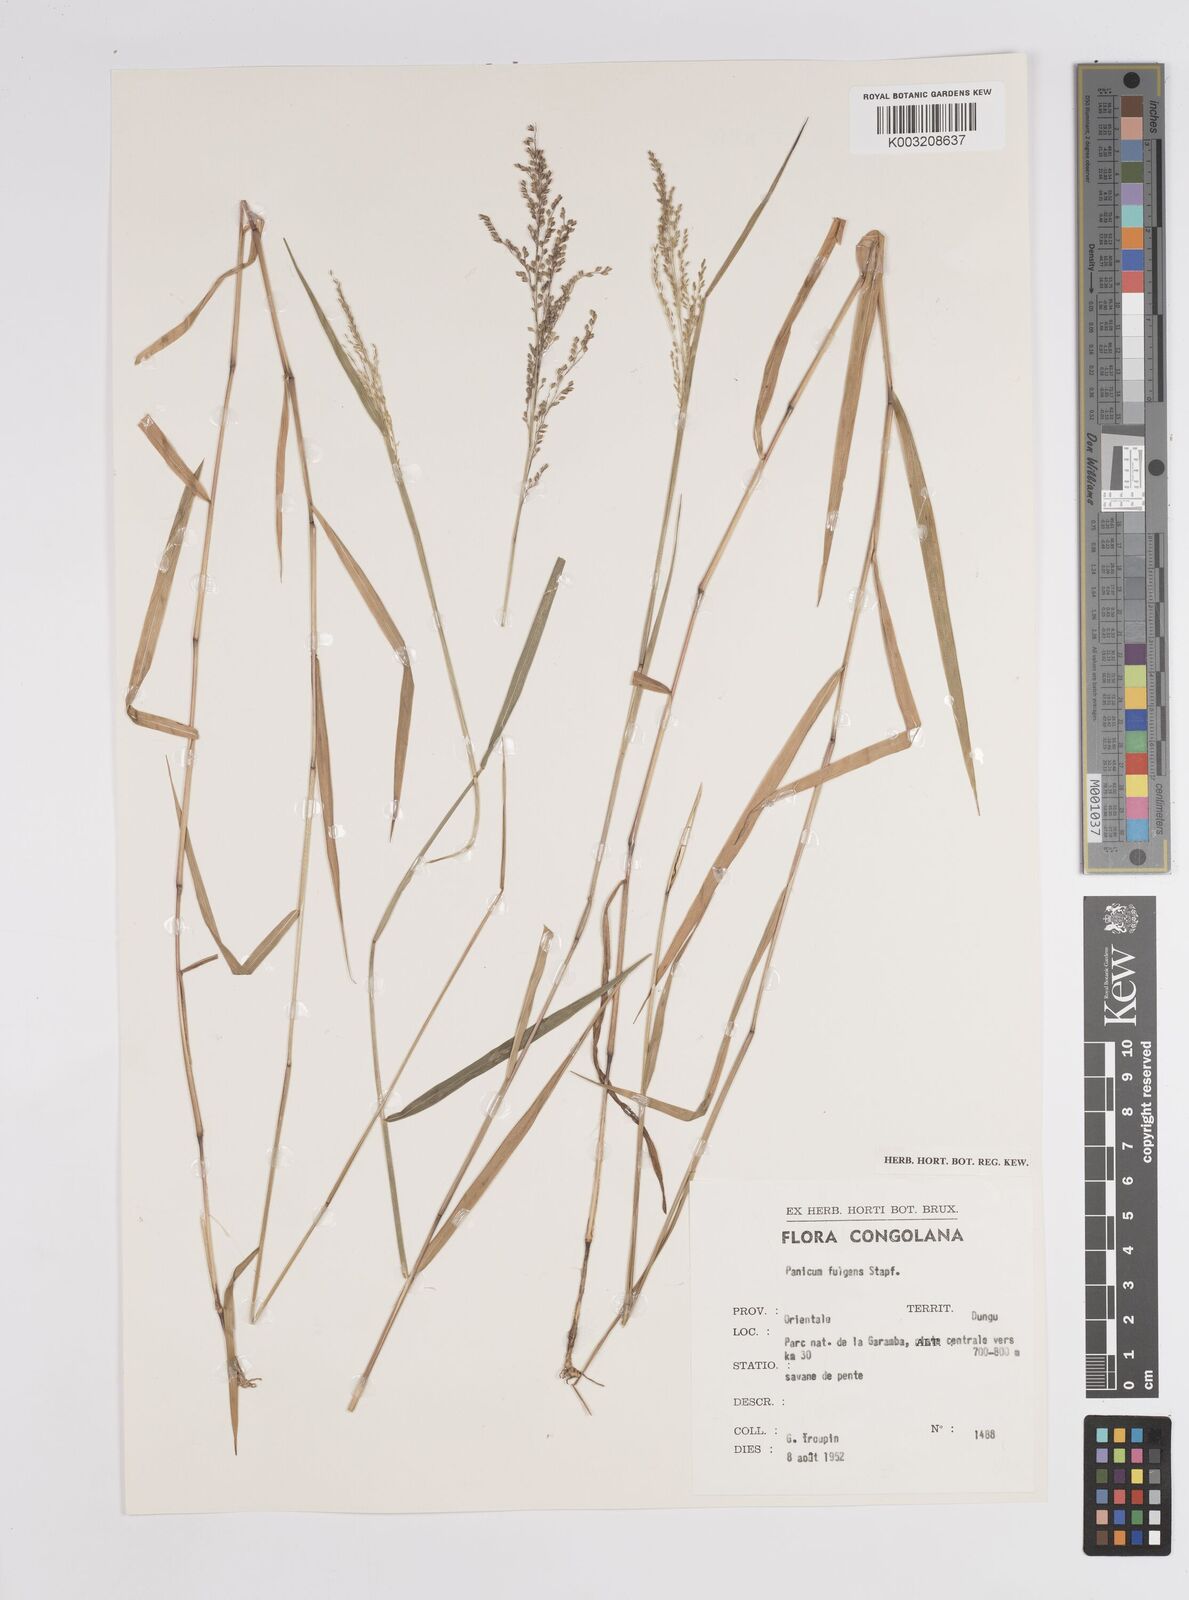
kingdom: Plantae
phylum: Tracheophyta
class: Liliopsida
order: Poales
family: Poaceae
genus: Trichanthecium
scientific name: Trichanthecium nervatum
